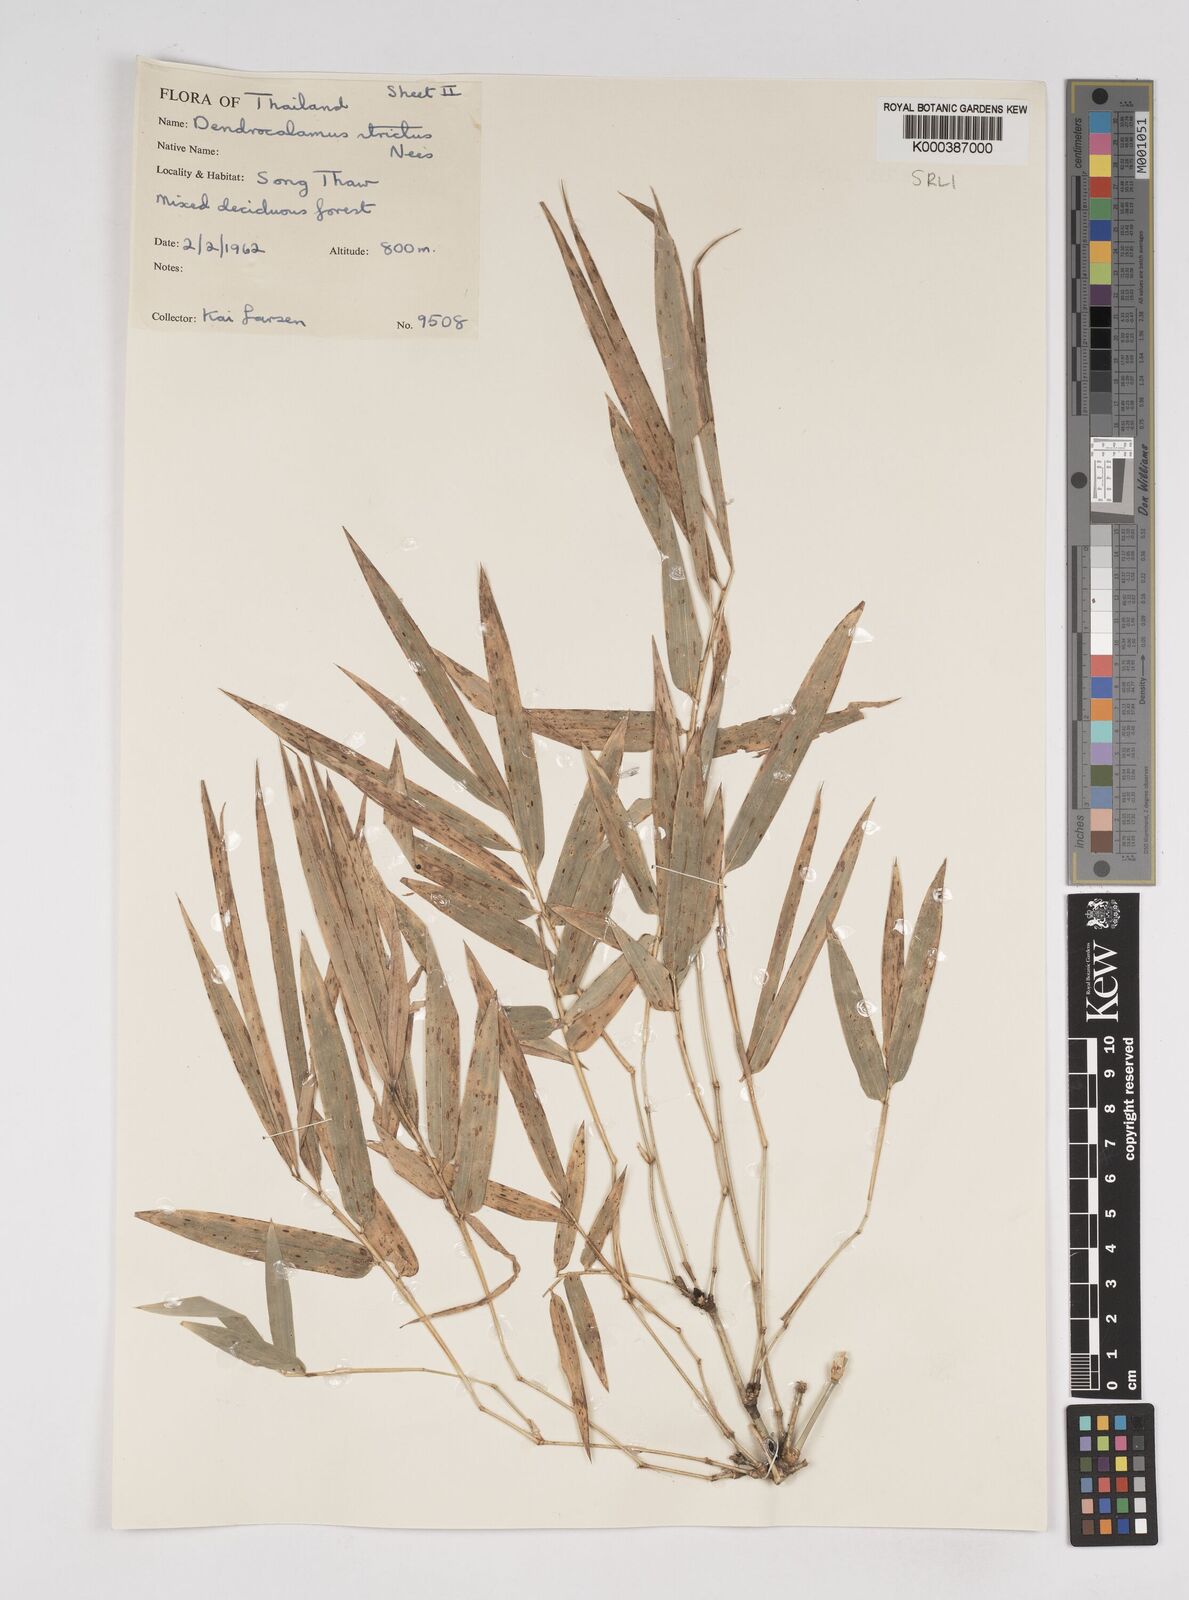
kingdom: Plantae
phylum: Tracheophyta
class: Liliopsida
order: Poales
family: Poaceae
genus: Dendrocalamus
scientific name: Dendrocalamus membranaceus
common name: White bamboo
